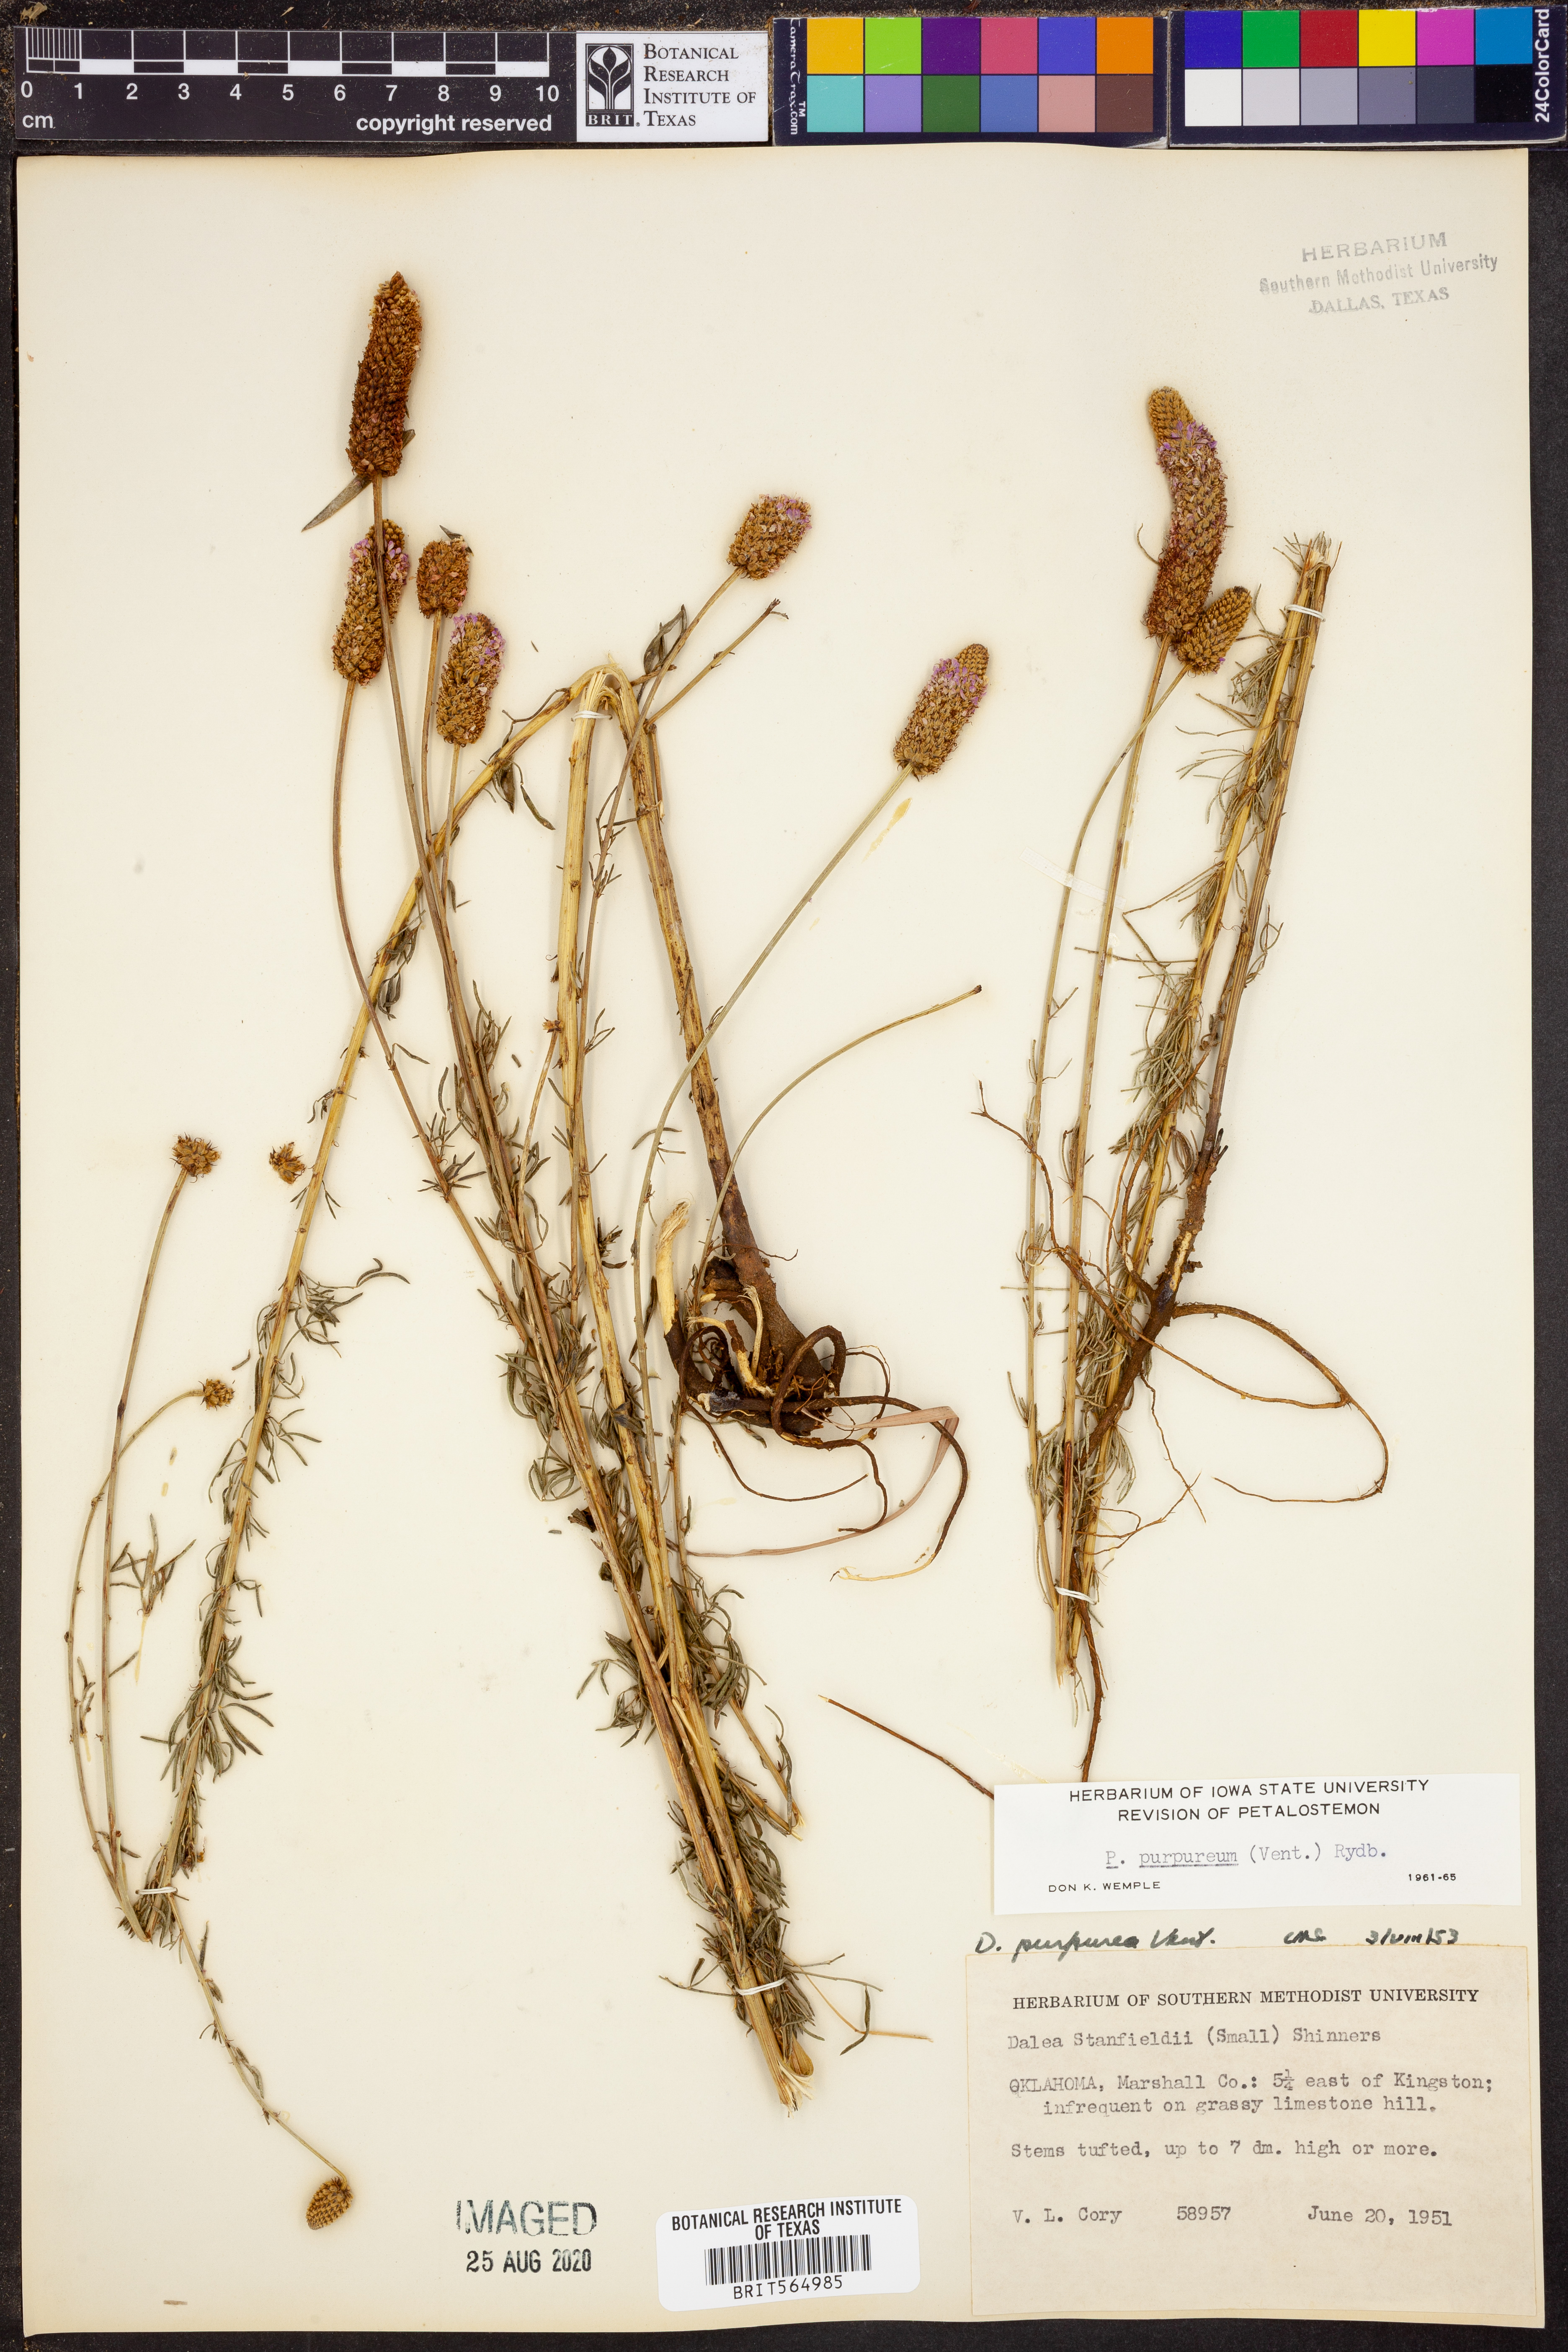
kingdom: Plantae
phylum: Tracheophyta
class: Magnoliopsida
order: Fabales
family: Fabaceae
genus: Dalea
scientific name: Dalea purpurea
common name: Purple prairie-clover
